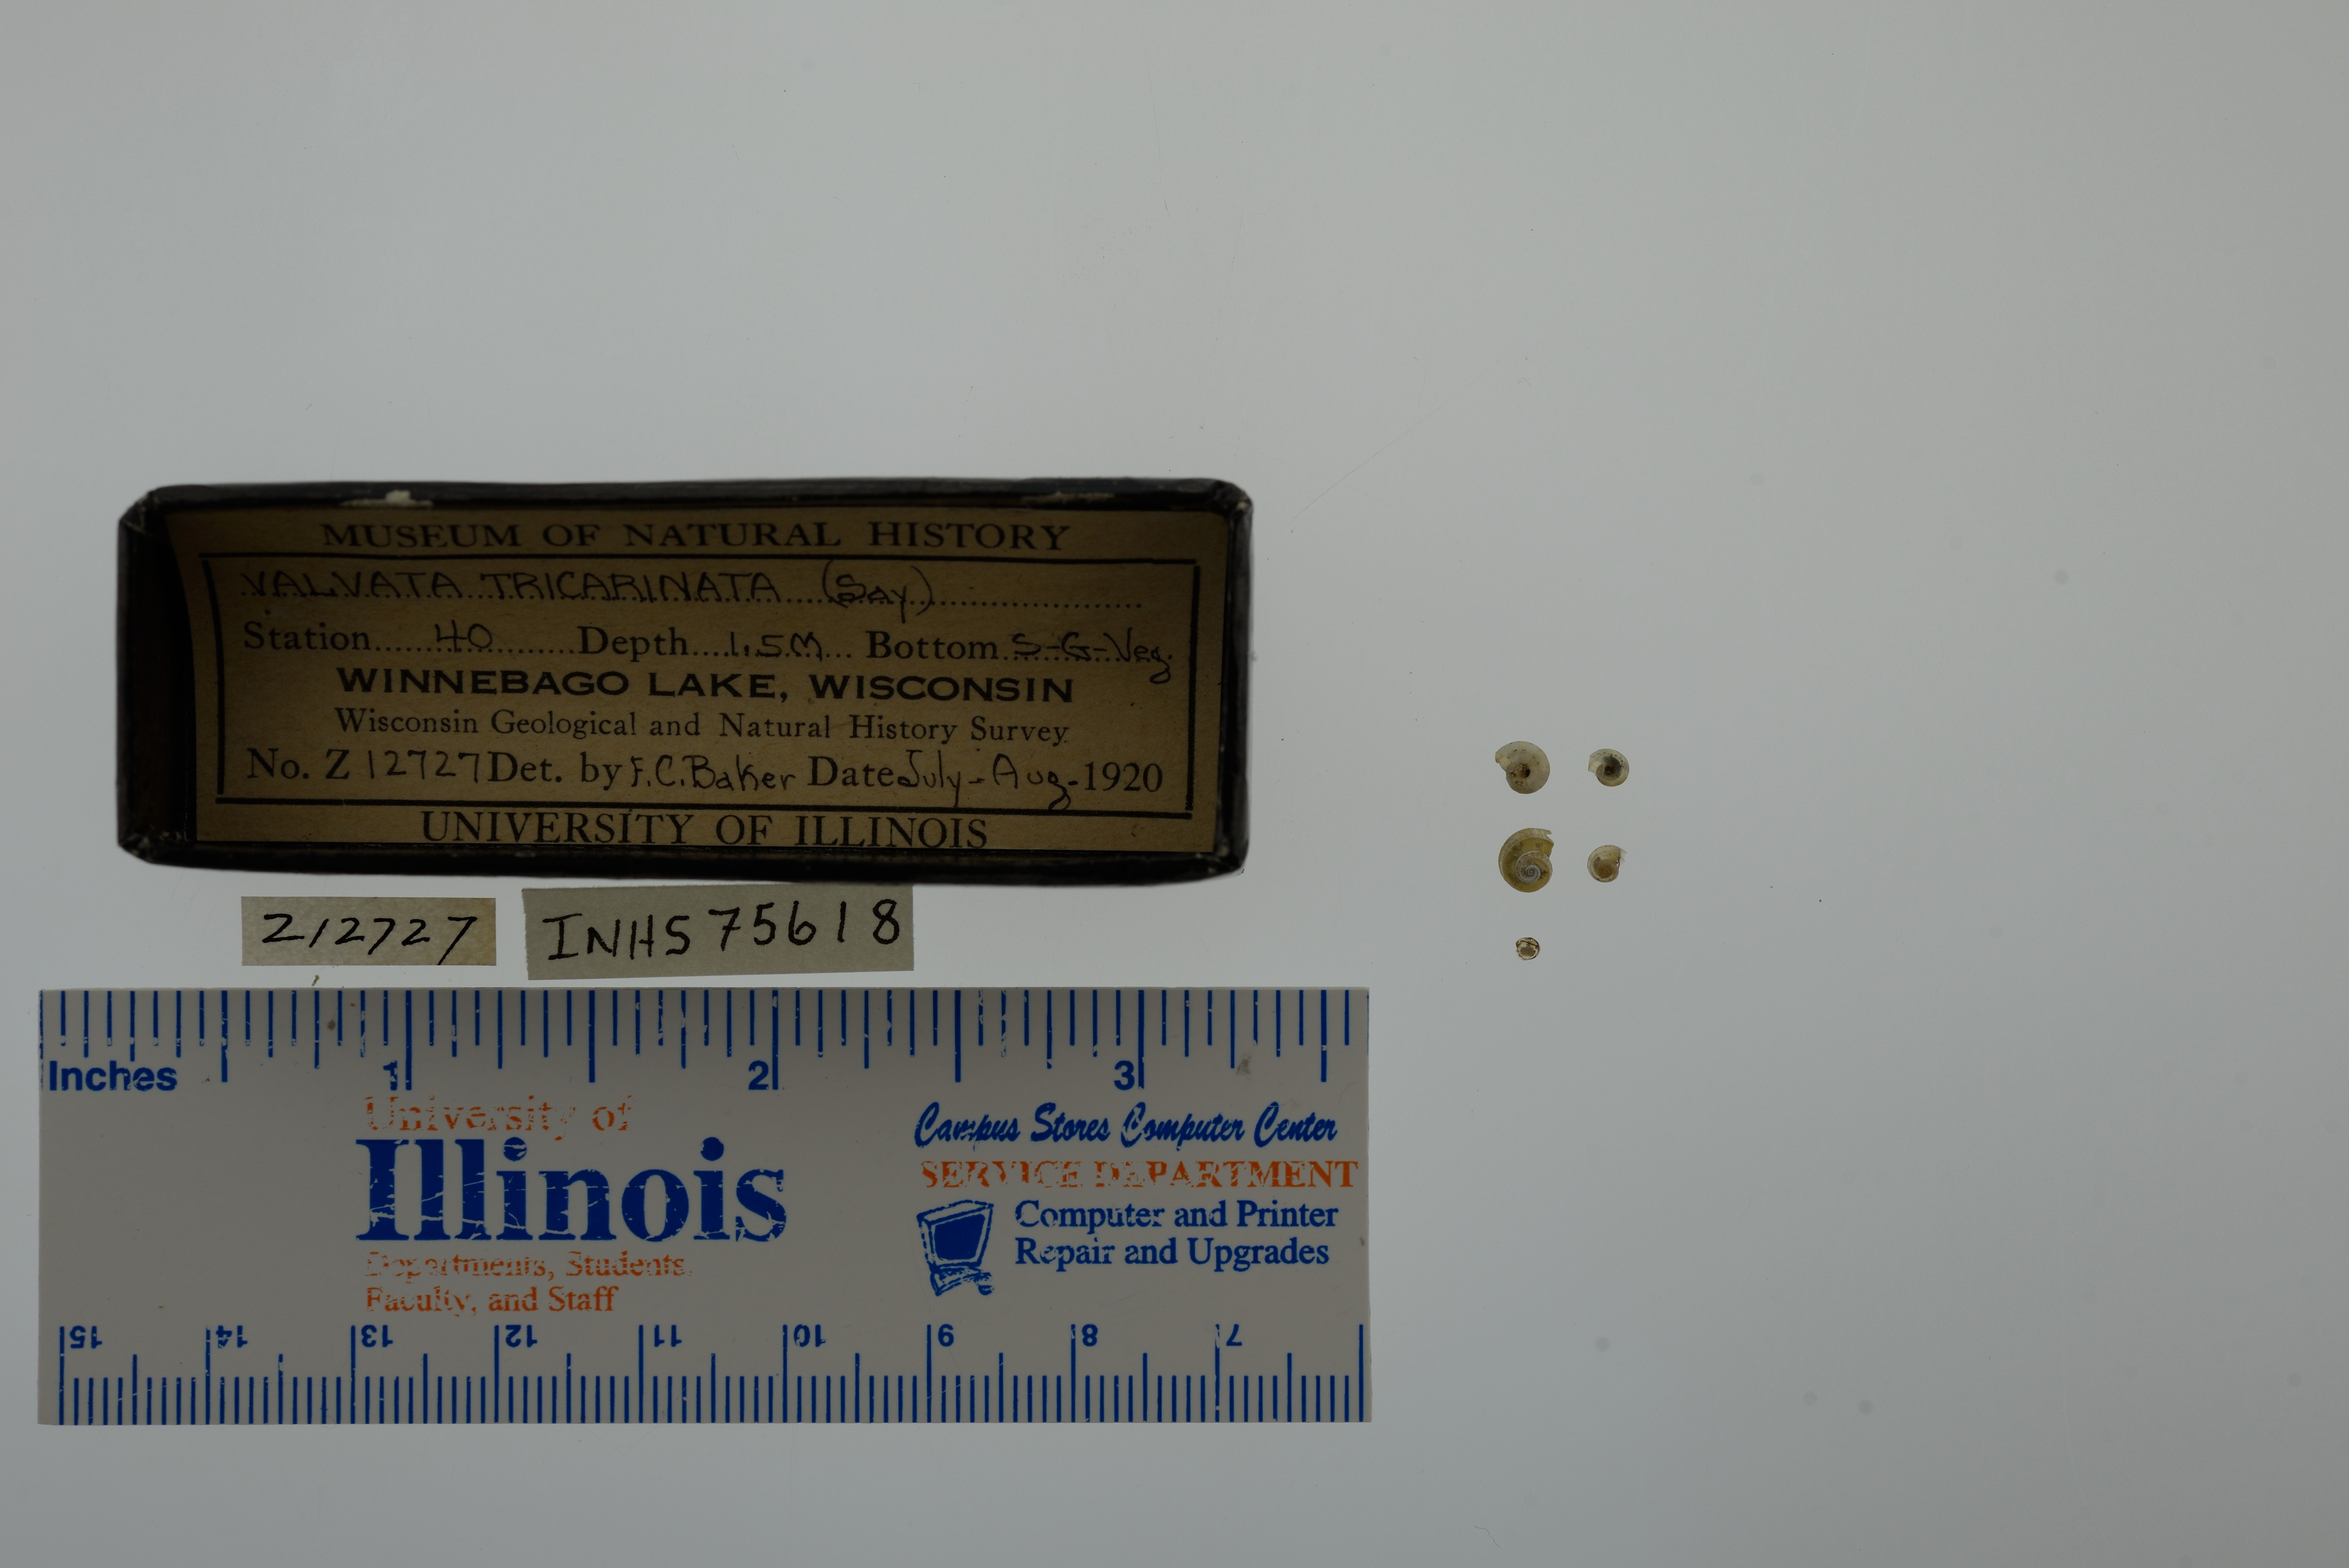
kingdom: Animalia
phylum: Mollusca
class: Gastropoda
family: Valvatidae
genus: Valvata
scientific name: Valvata tricarinata
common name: Three-ridge valvata
